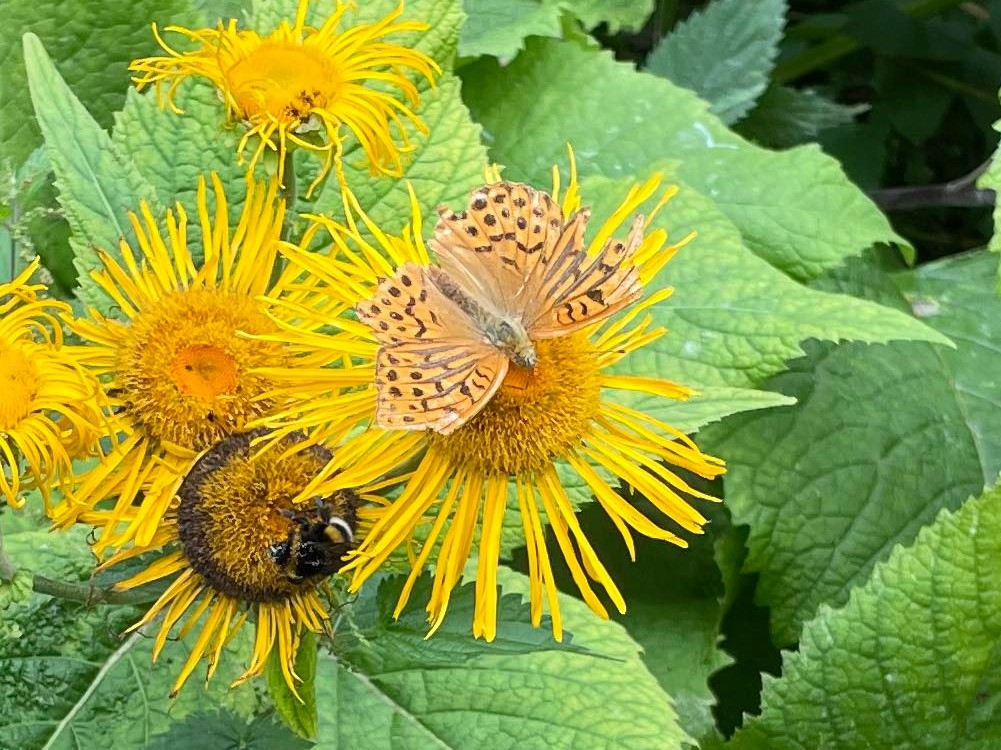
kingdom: Animalia
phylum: Arthropoda
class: Insecta
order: Lepidoptera
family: Nymphalidae
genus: Argynnis
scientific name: Argynnis paphia
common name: Kejserkåbe
